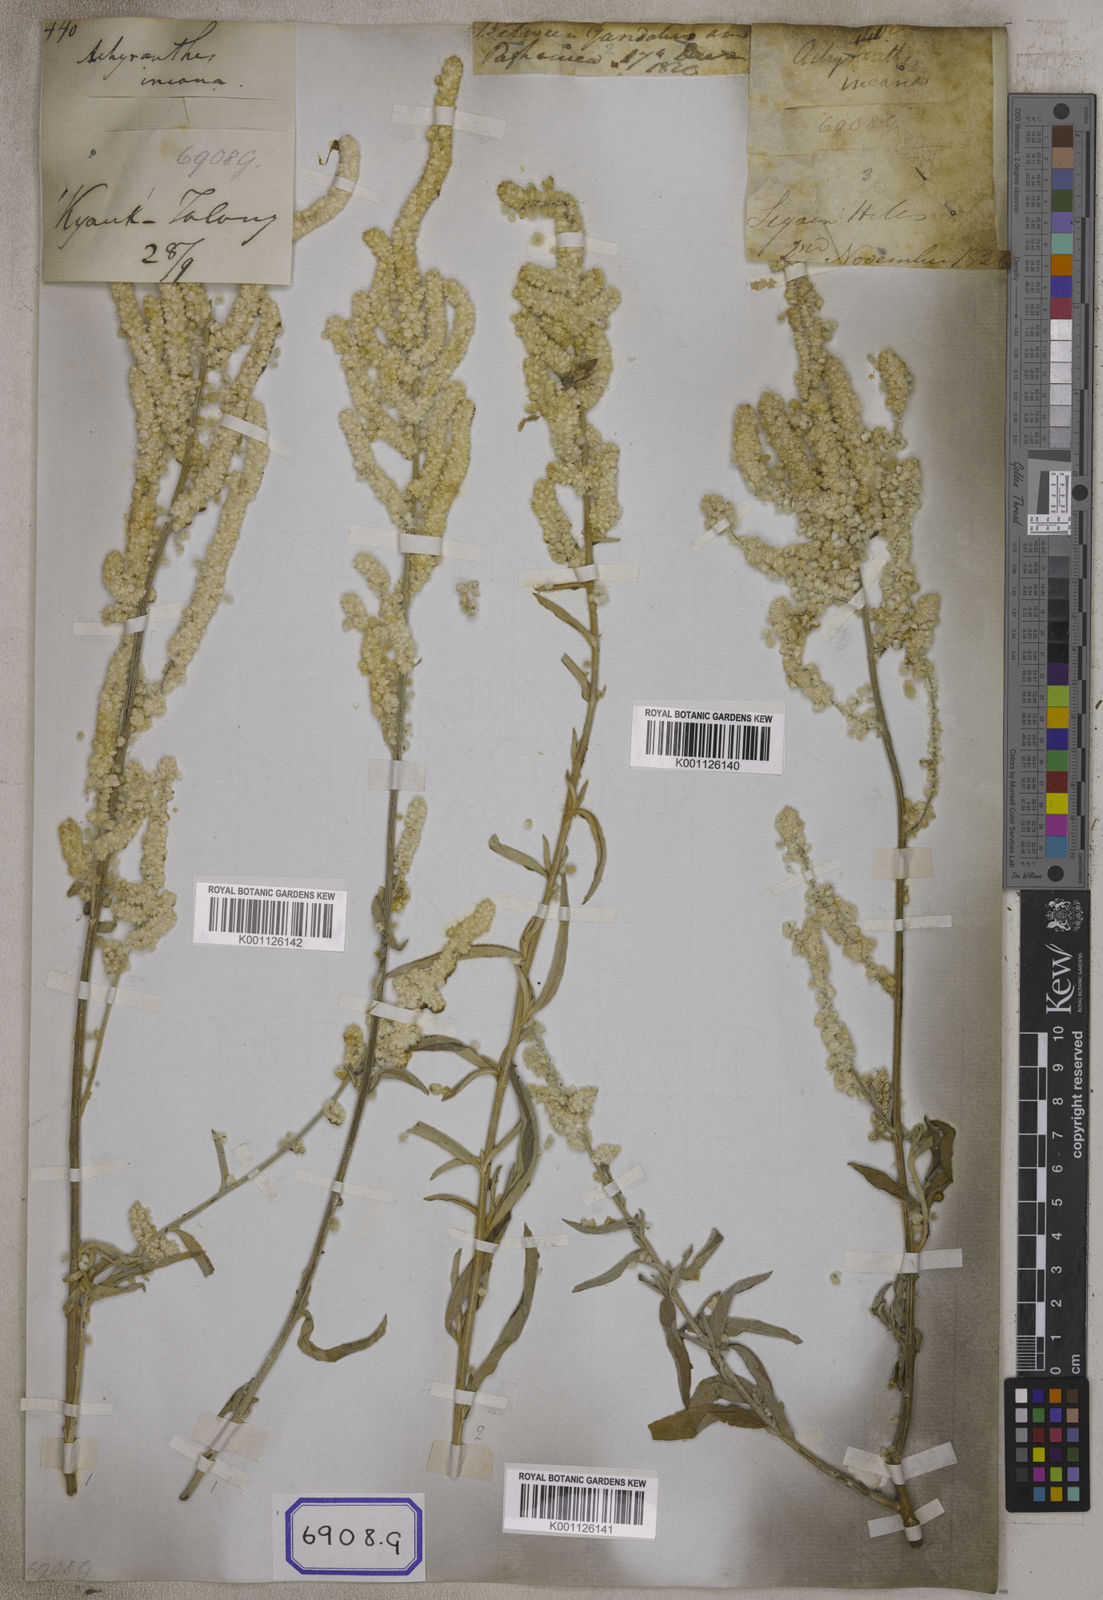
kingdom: Plantae
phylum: Tracheophyta
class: Magnoliopsida
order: Caryophyllales
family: Amaranthaceae
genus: Aerva
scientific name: Aerva
